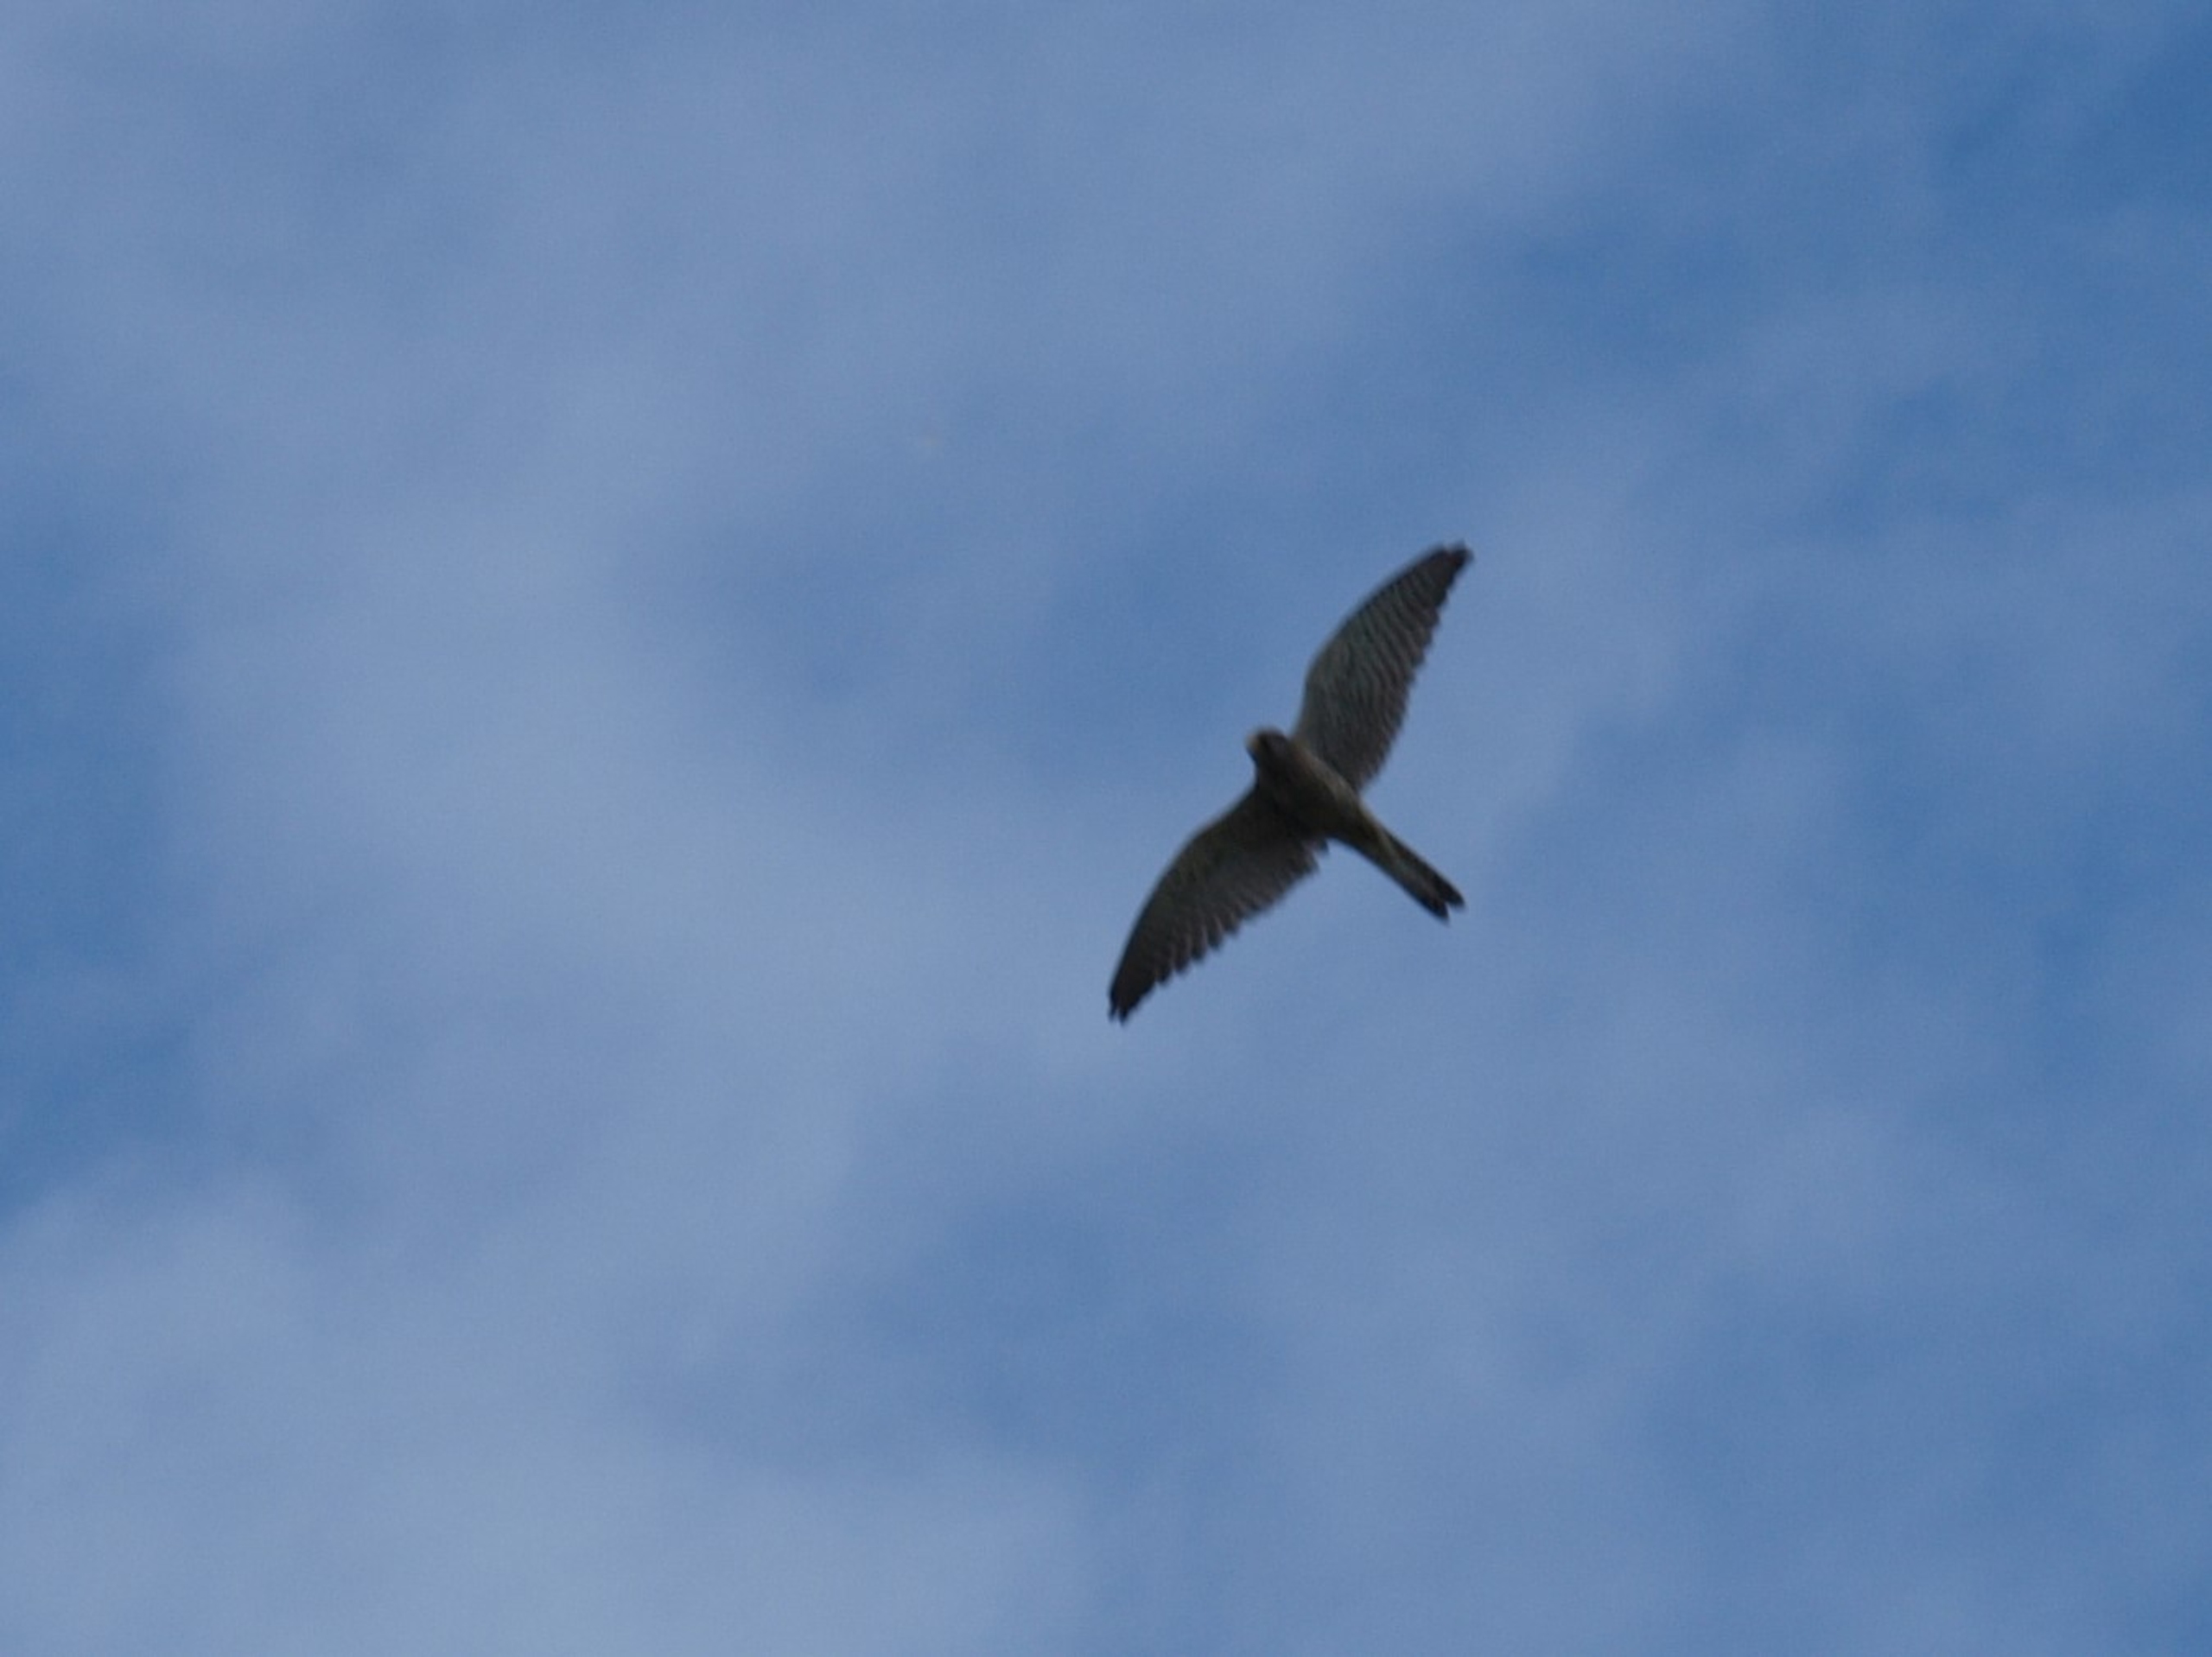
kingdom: Animalia
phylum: Chordata
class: Aves
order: Falconiformes
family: Falconidae
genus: Falco
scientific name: Falco tinnunculus
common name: Tårnfalk
